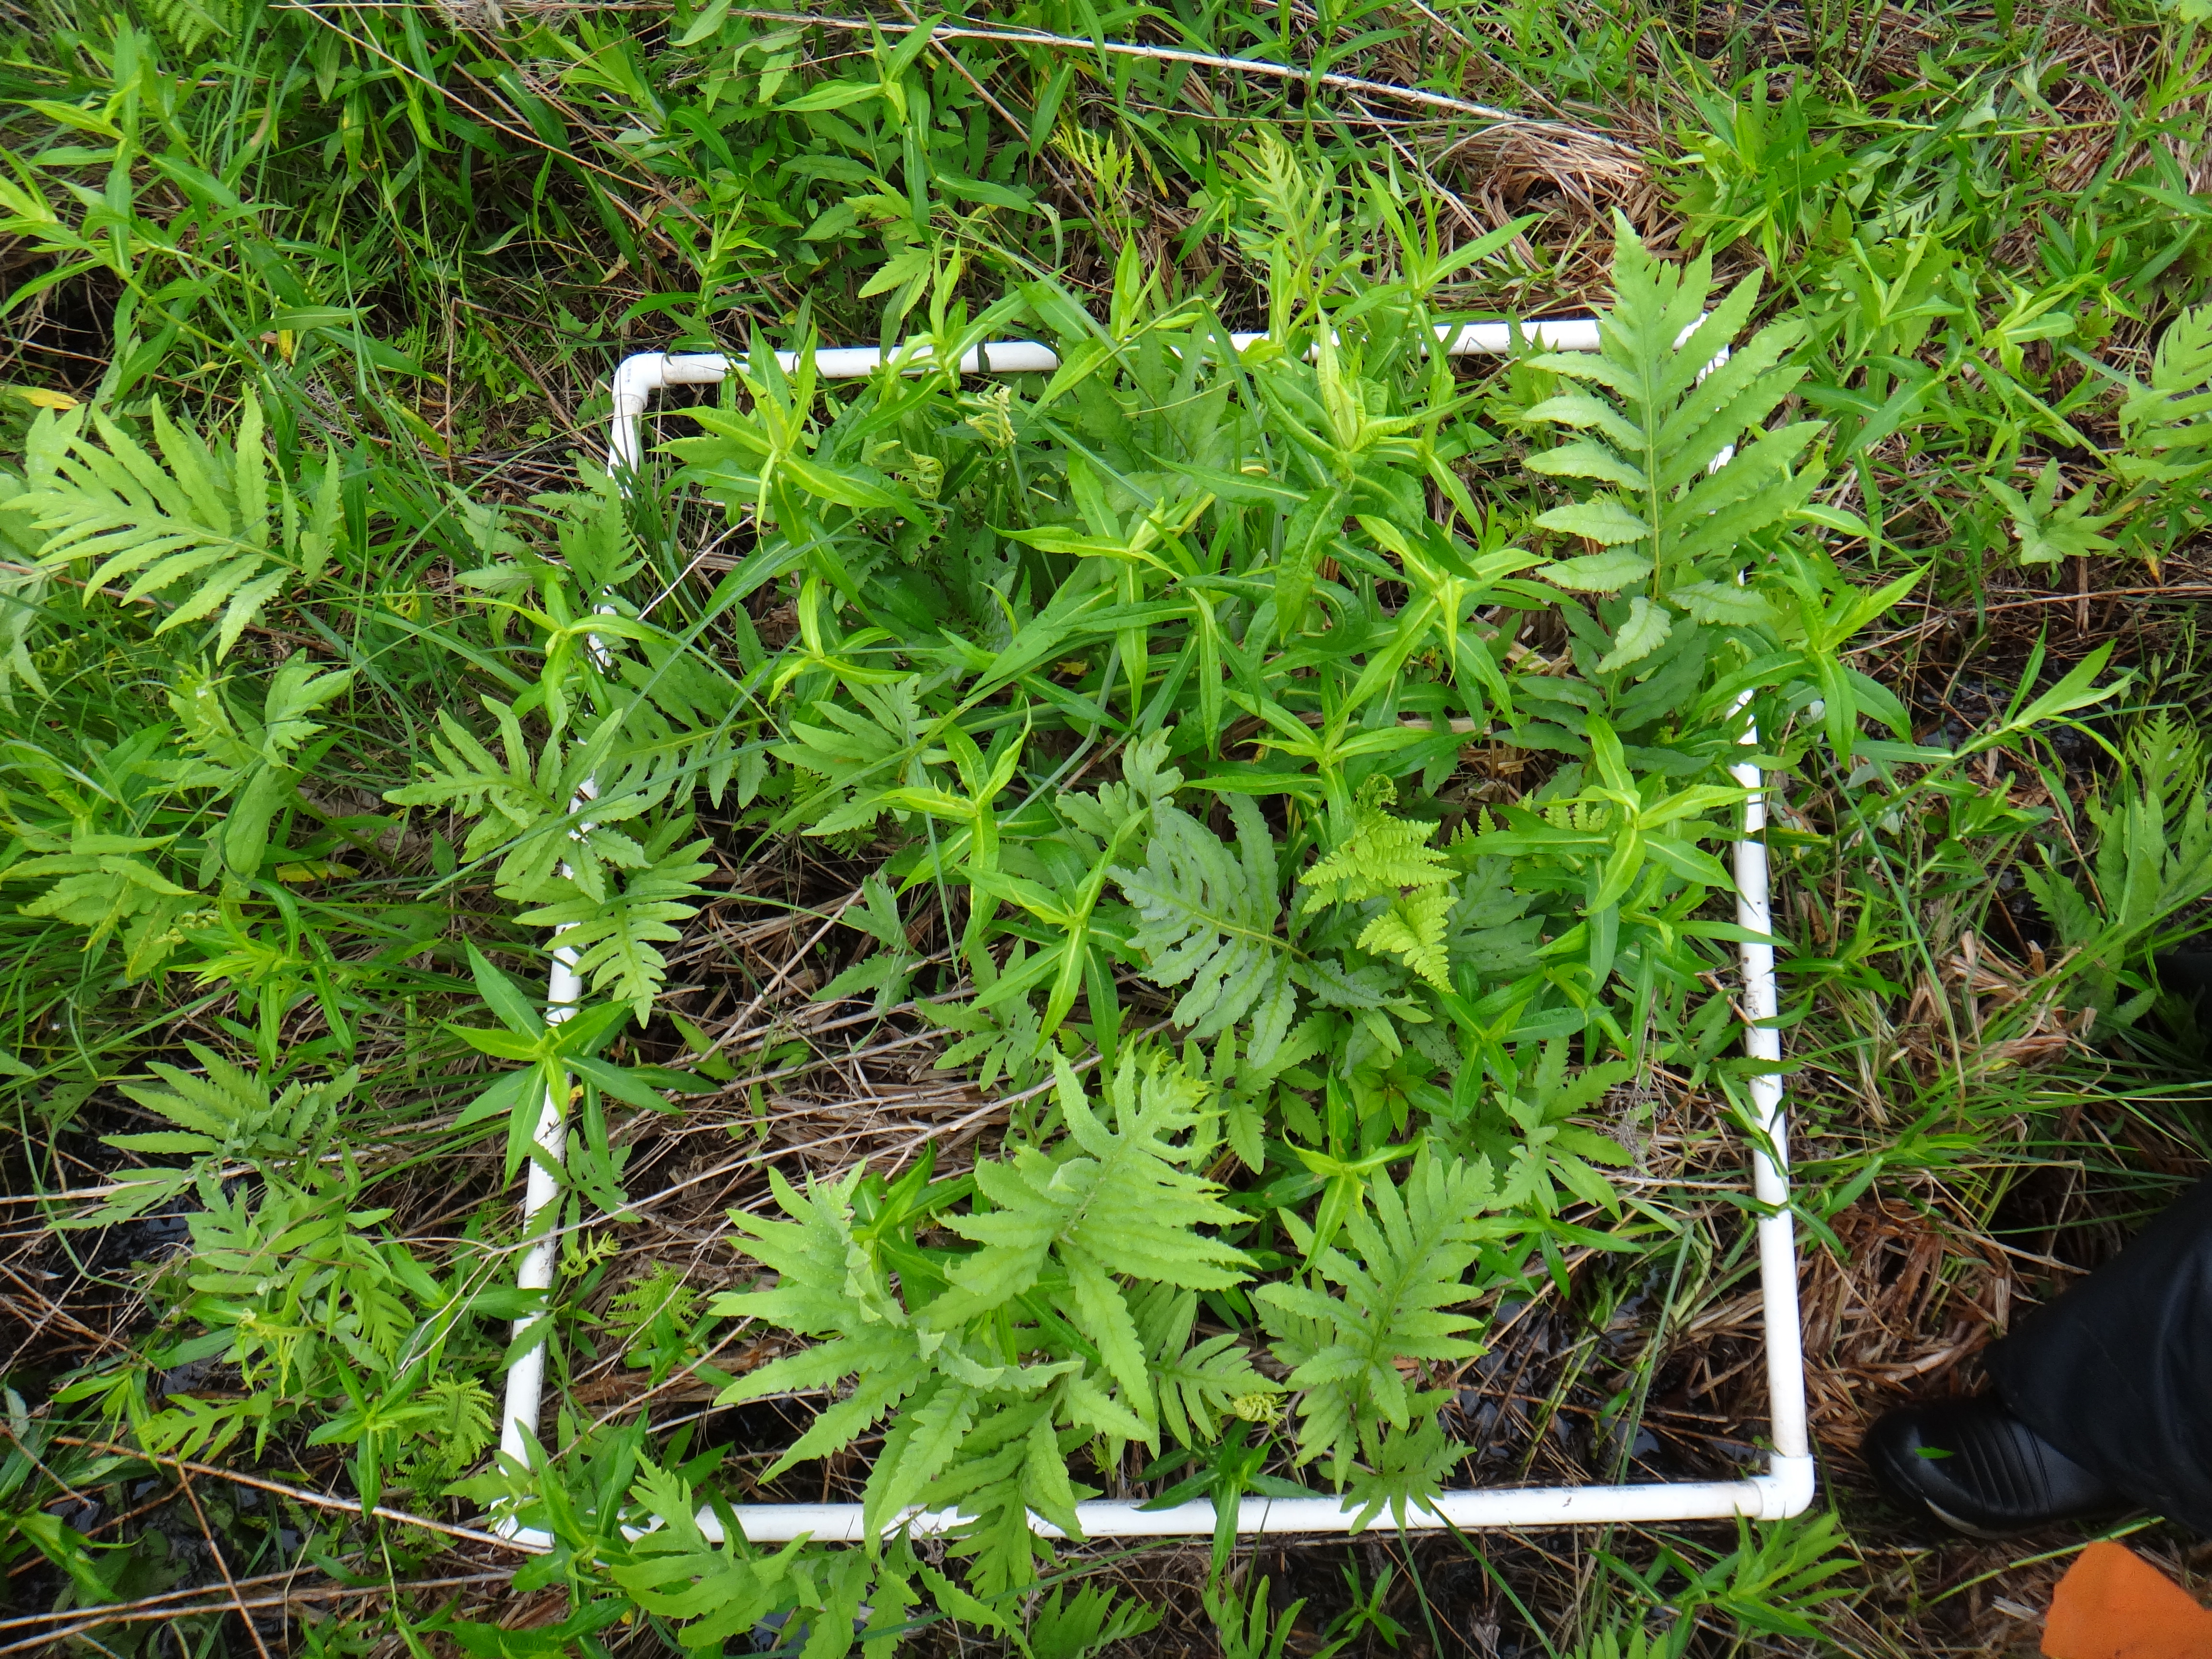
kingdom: Plantae
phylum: Tracheophyta
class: Polypodiopsida
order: Polypodiales
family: Thelypteridaceae
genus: Thelypteris
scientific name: Thelypteris palustris
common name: Marsh fern
